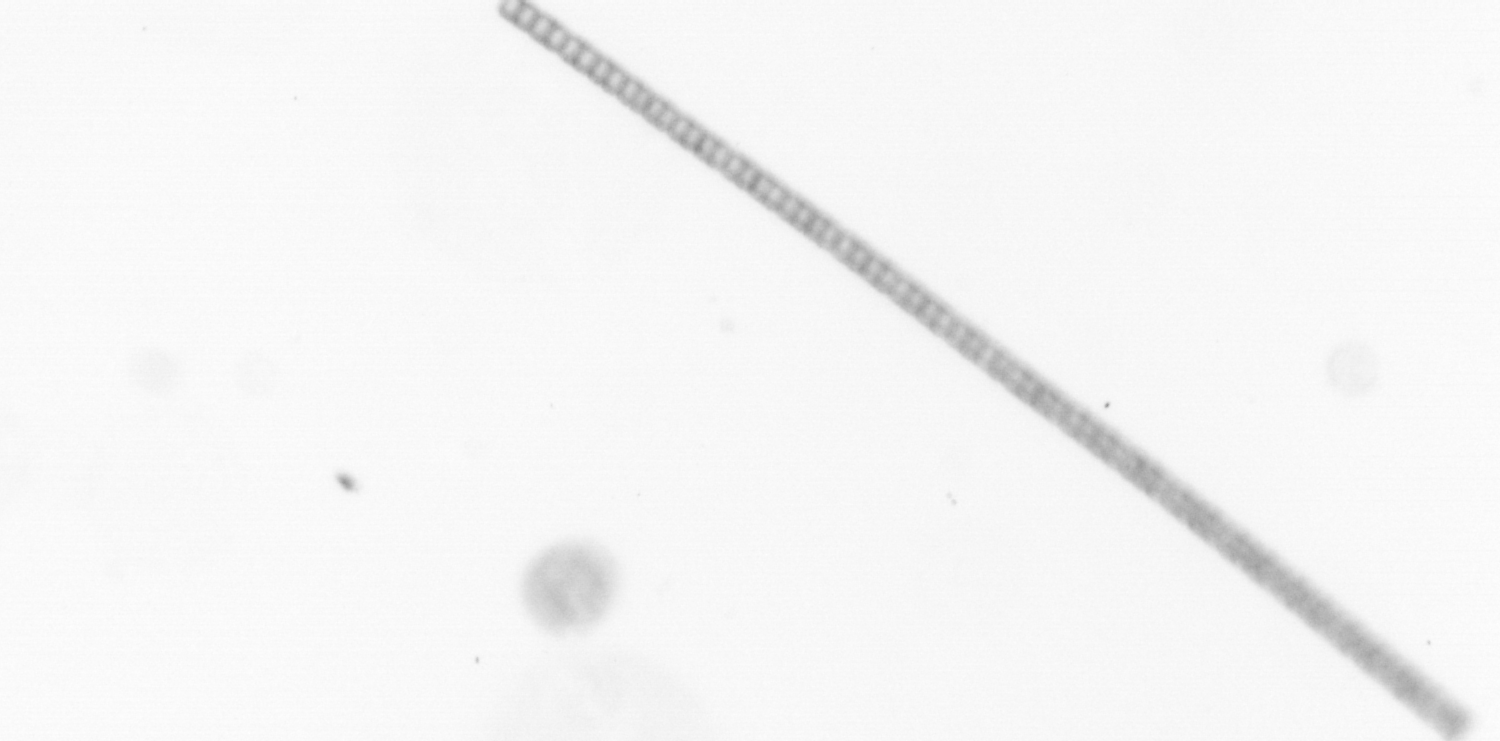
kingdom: Chromista
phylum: Ochrophyta
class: Bacillariophyceae
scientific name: Bacillariophyceae
